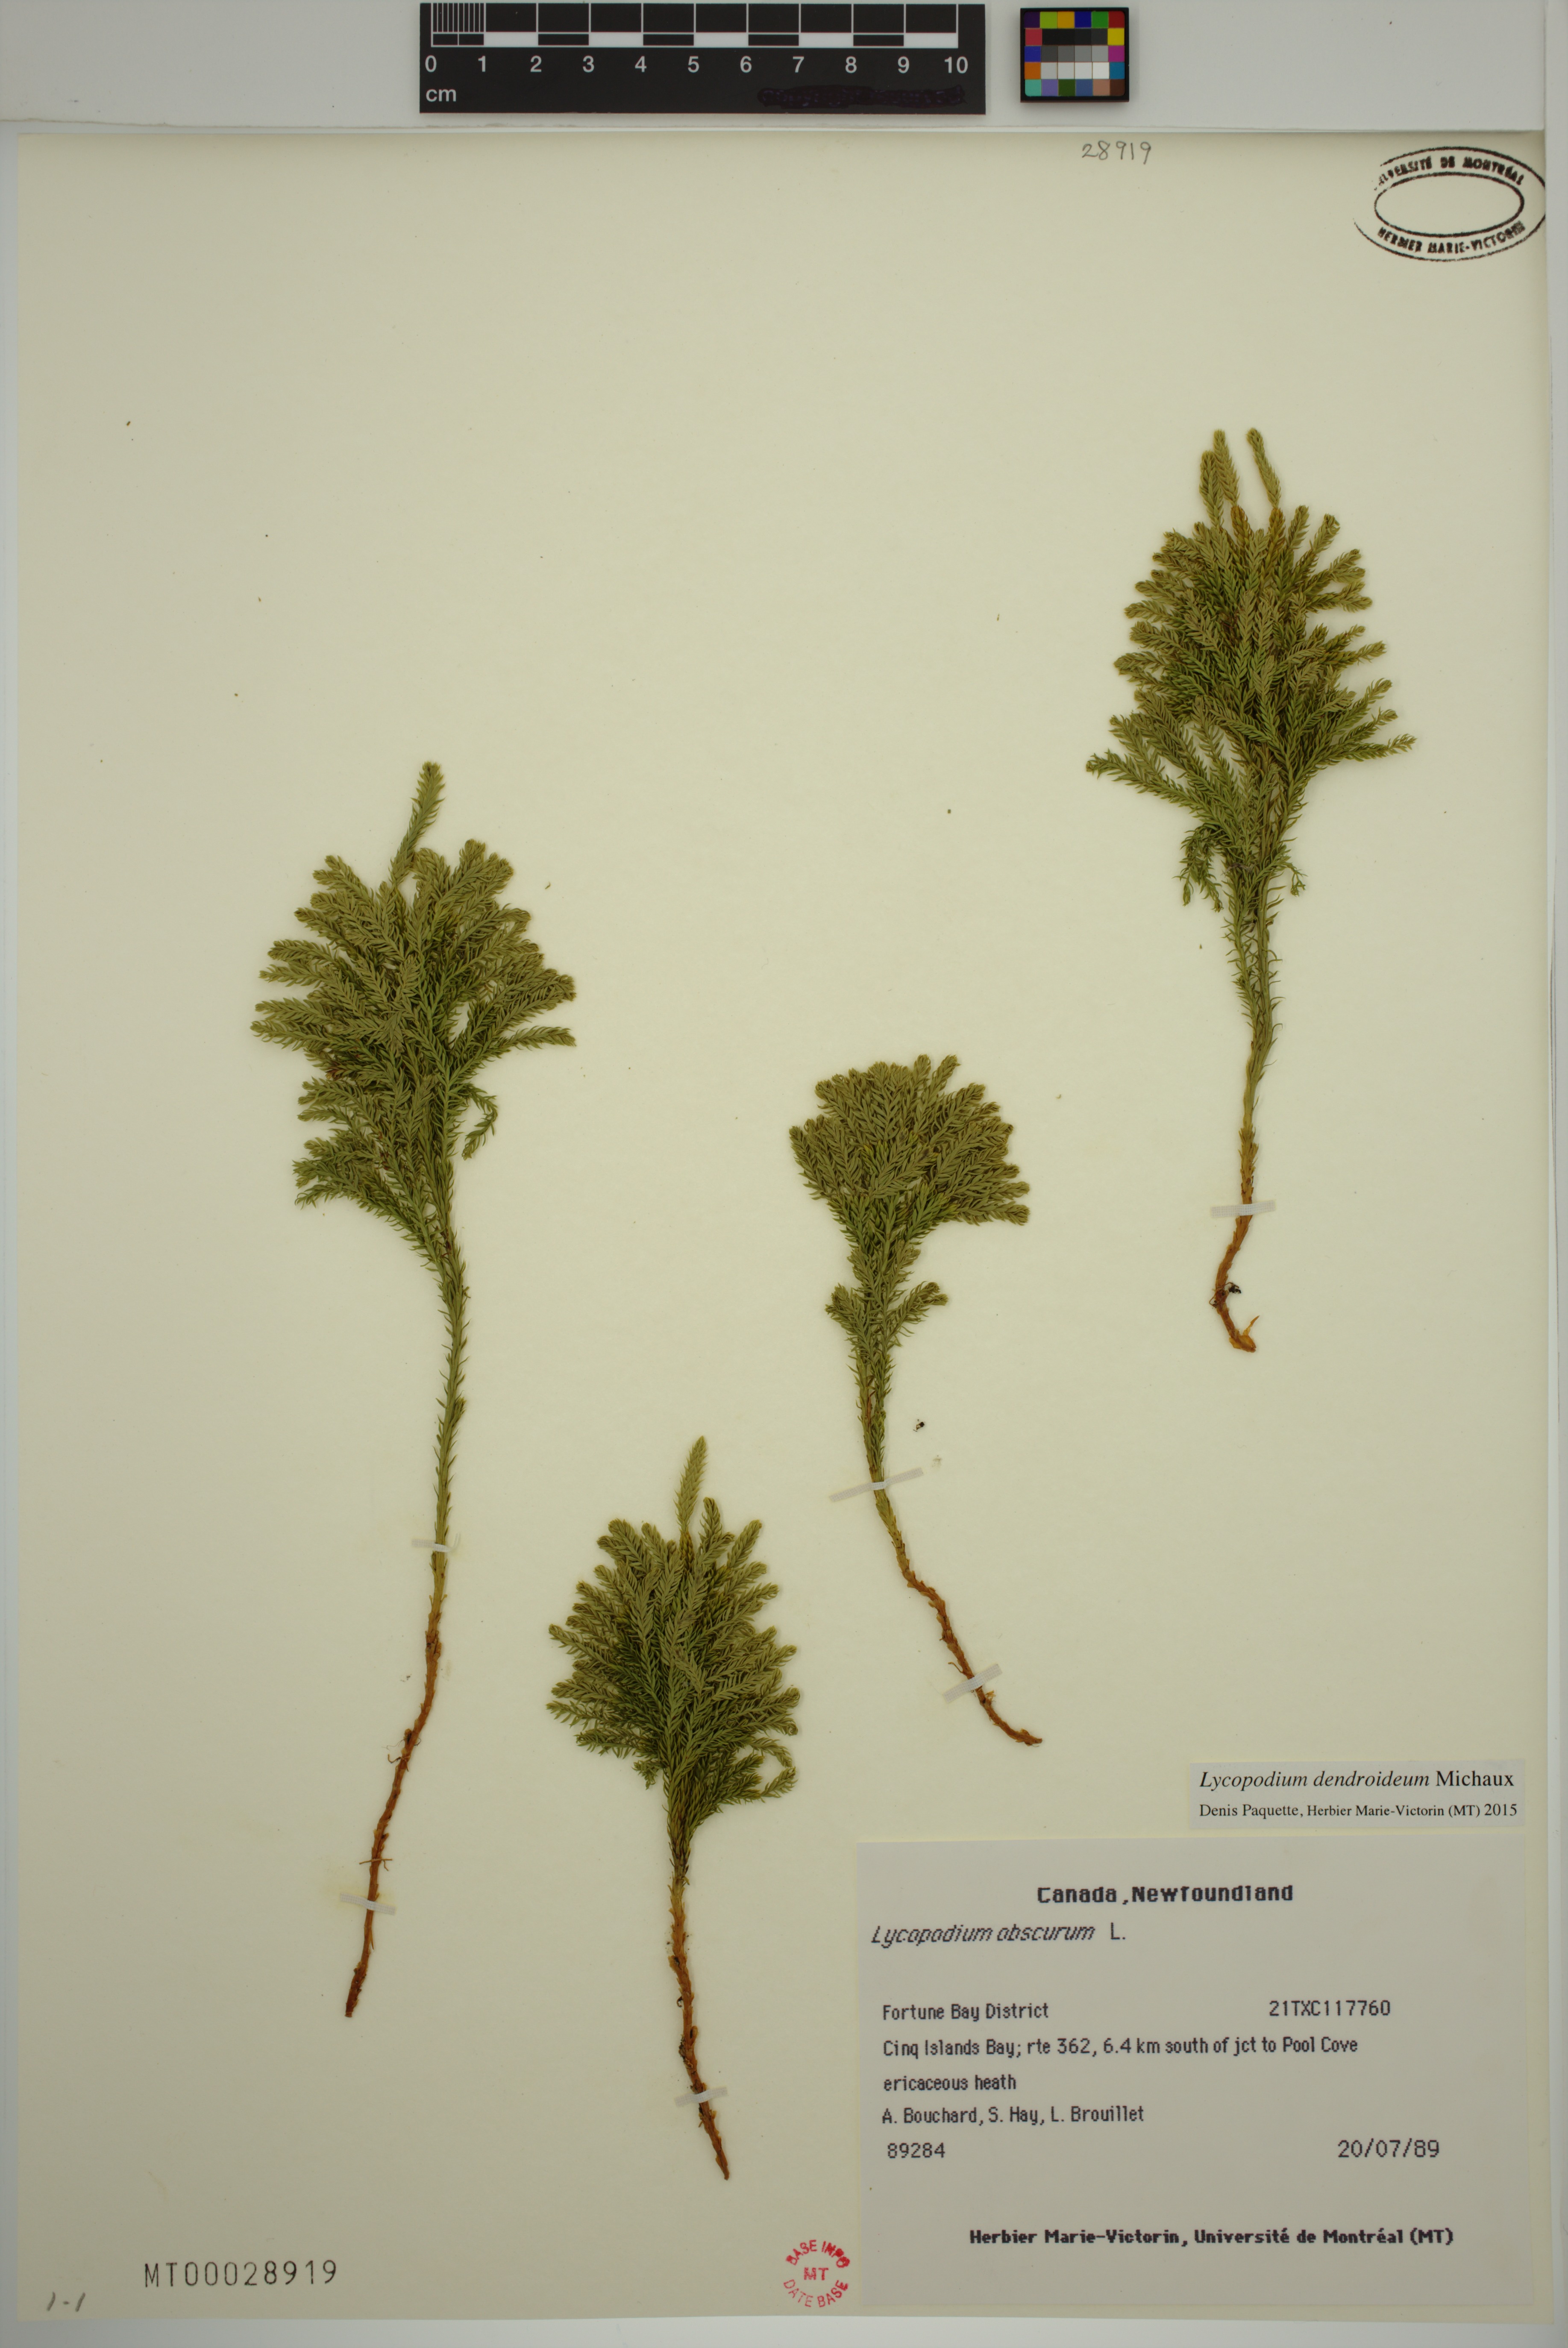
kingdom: Plantae
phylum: Tracheophyta
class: Lycopodiopsida
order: Lycopodiales
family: Lycopodiaceae
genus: Dendrolycopodium
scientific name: Dendrolycopodium dendroideum
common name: Northern tree-clubmoss
